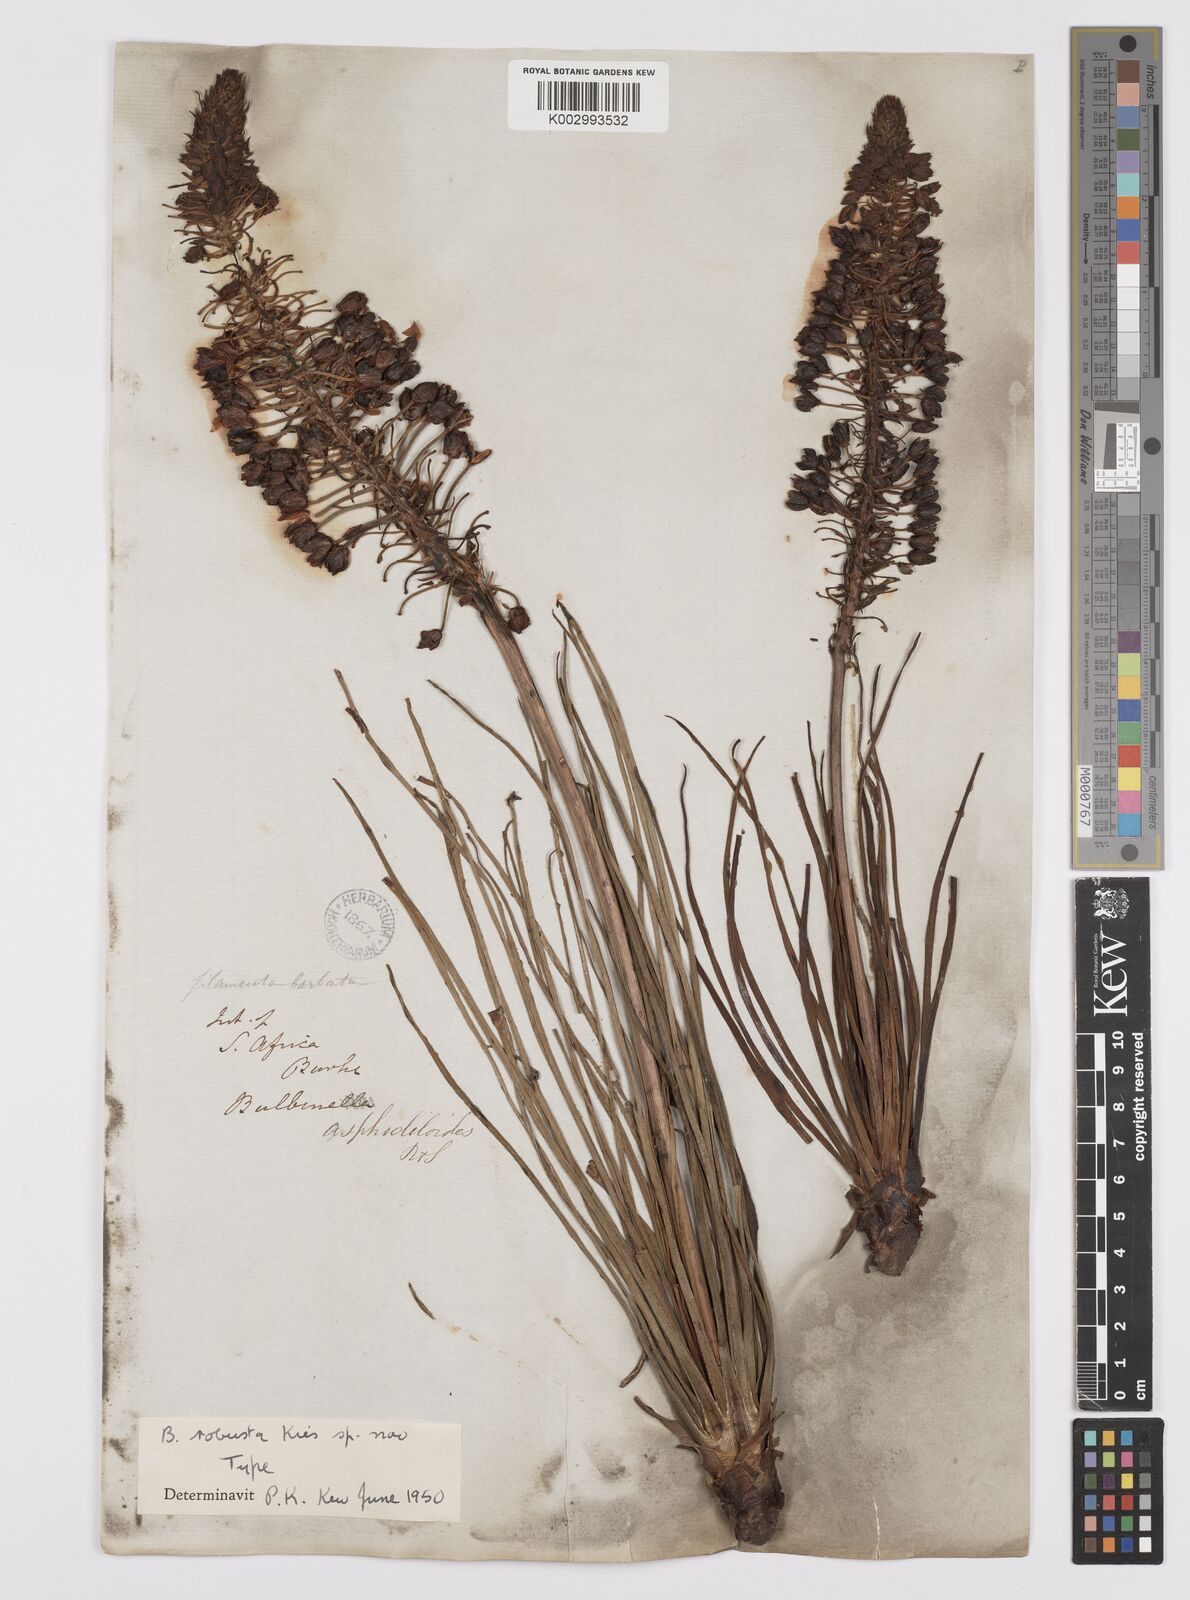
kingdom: Plantae
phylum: Tracheophyta
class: Liliopsida
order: Asparagales
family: Asphodelaceae
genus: Bulbine
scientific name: Bulbine asphodeloides
